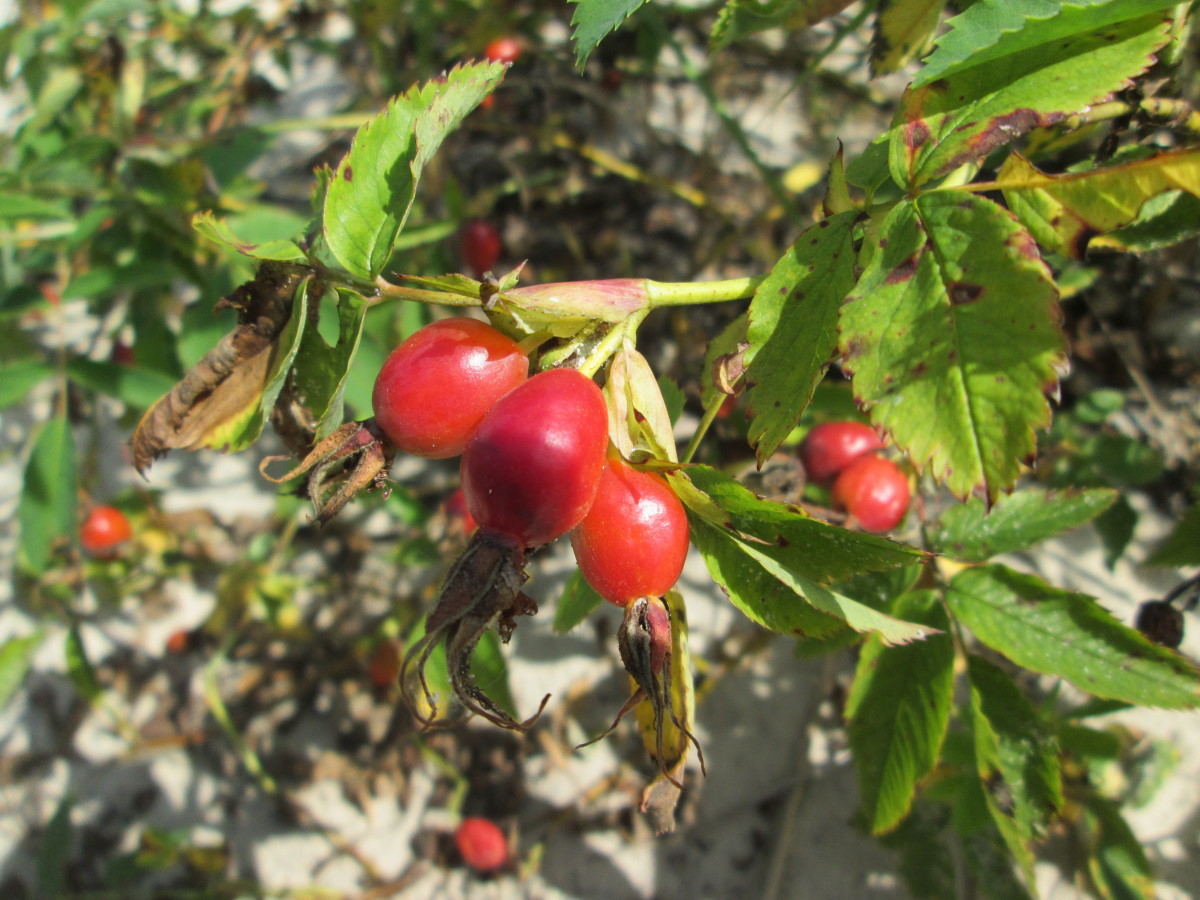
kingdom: Plantae
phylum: Tracheophyta
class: Magnoliopsida
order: Rosales
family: Rosaceae
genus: Rosa
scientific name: Rosa
